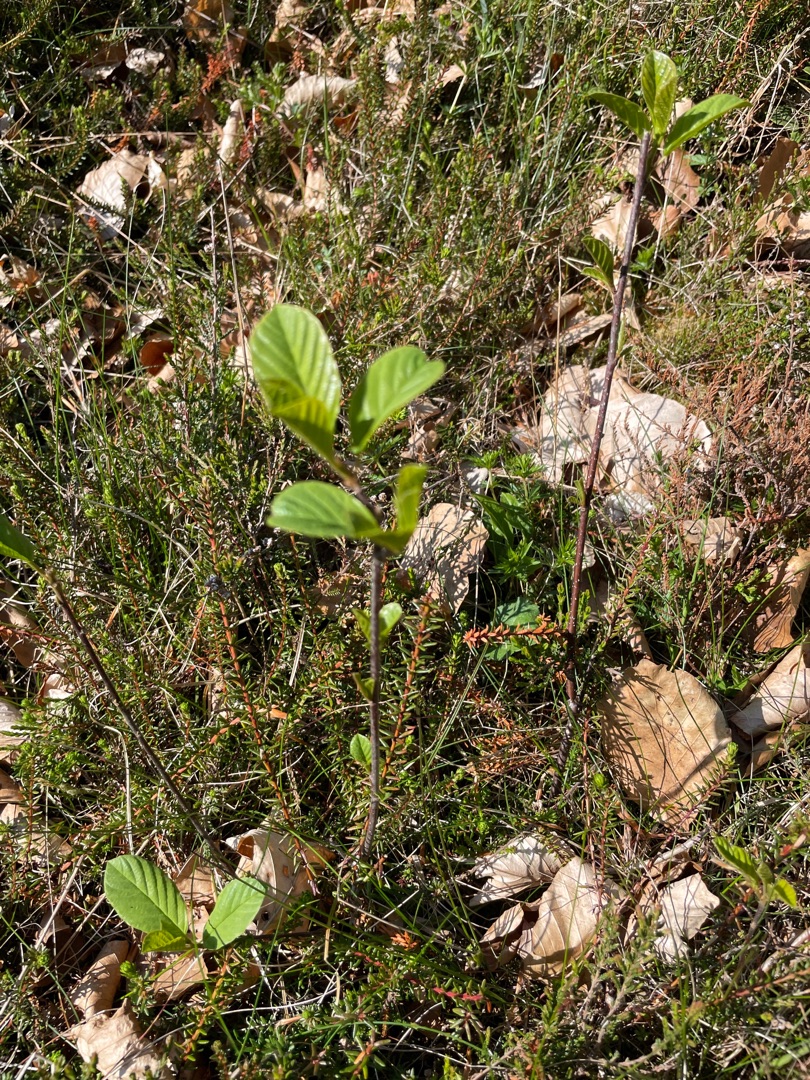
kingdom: Plantae
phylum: Tracheophyta
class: Magnoliopsida
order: Rosales
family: Rhamnaceae
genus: Frangula
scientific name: Frangula alnus
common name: Tørst
